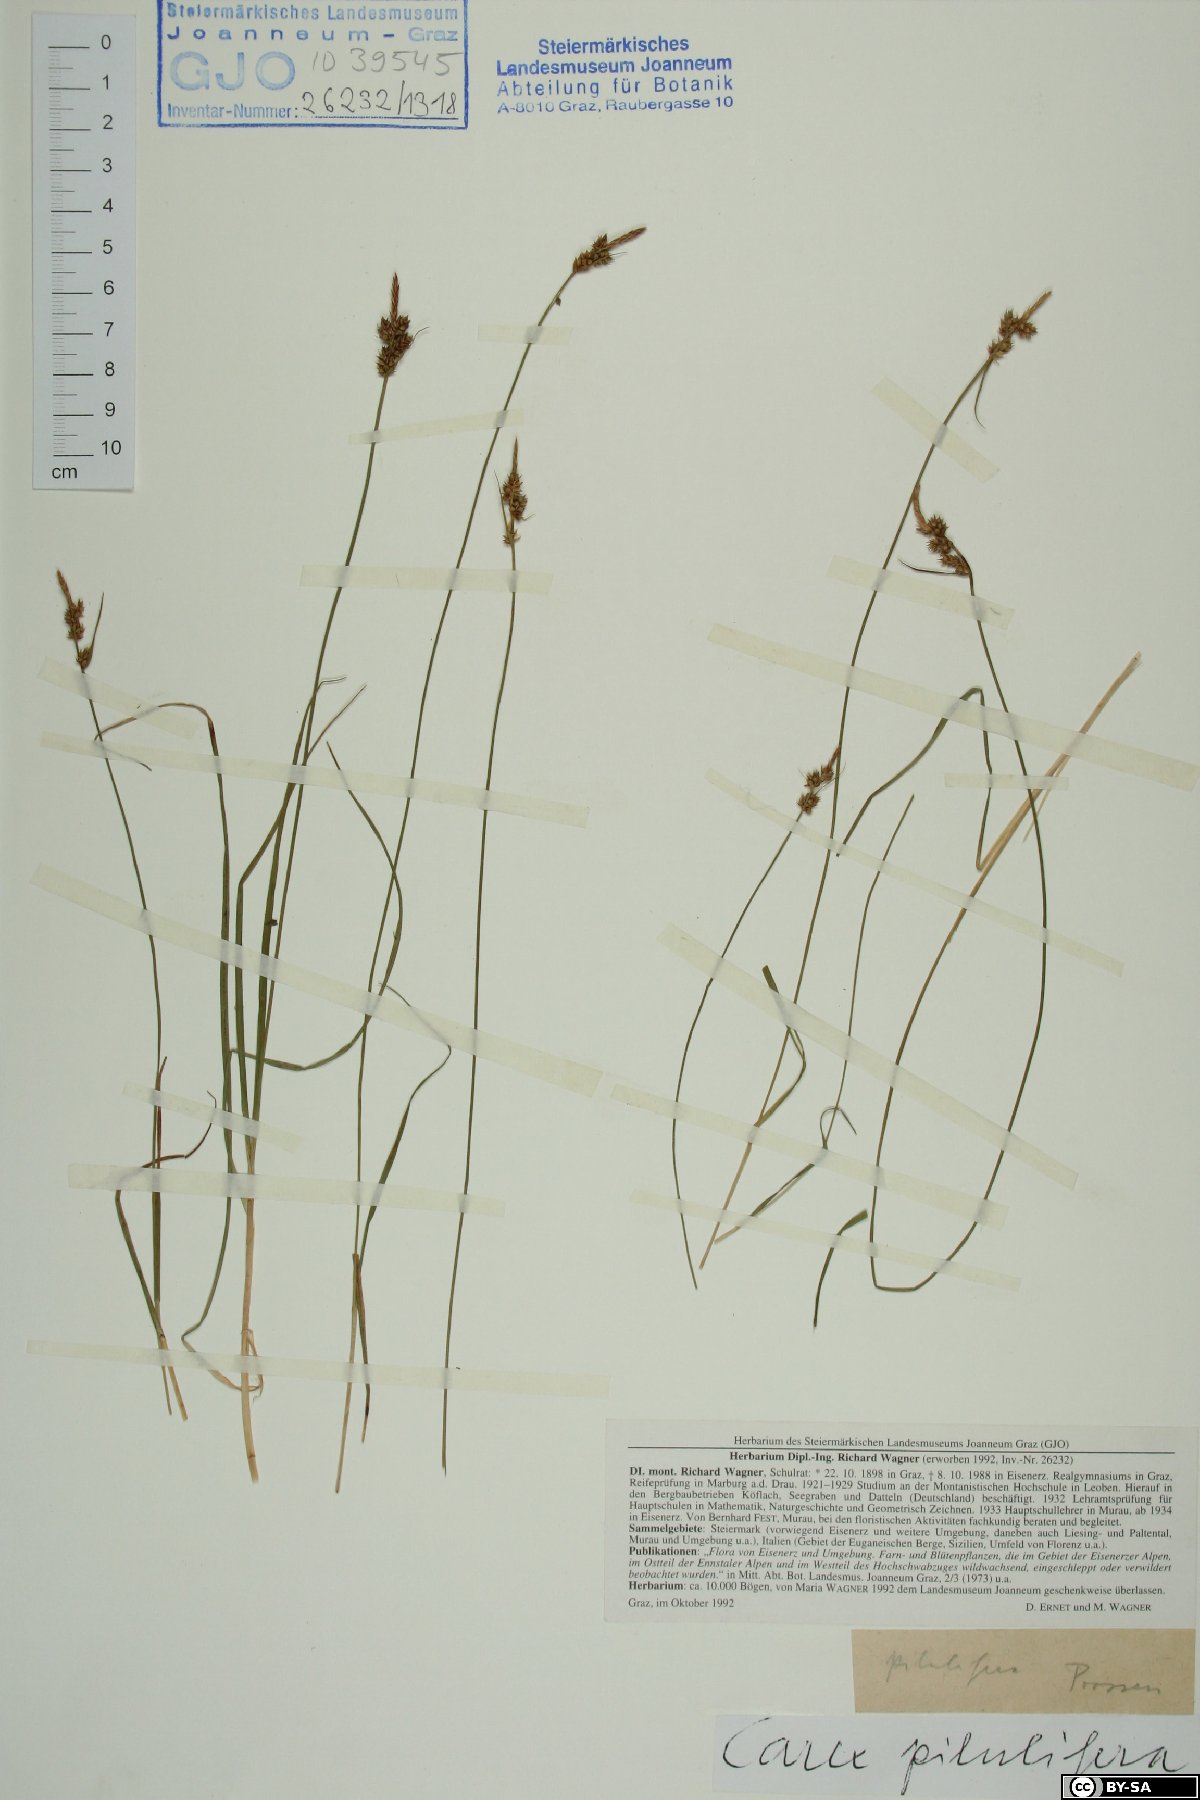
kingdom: Plantae
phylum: Tracheophyta
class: Liliopsida
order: Poales
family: Cyperaceae
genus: Carex
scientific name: Carex pilulifera
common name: Pill sedge
